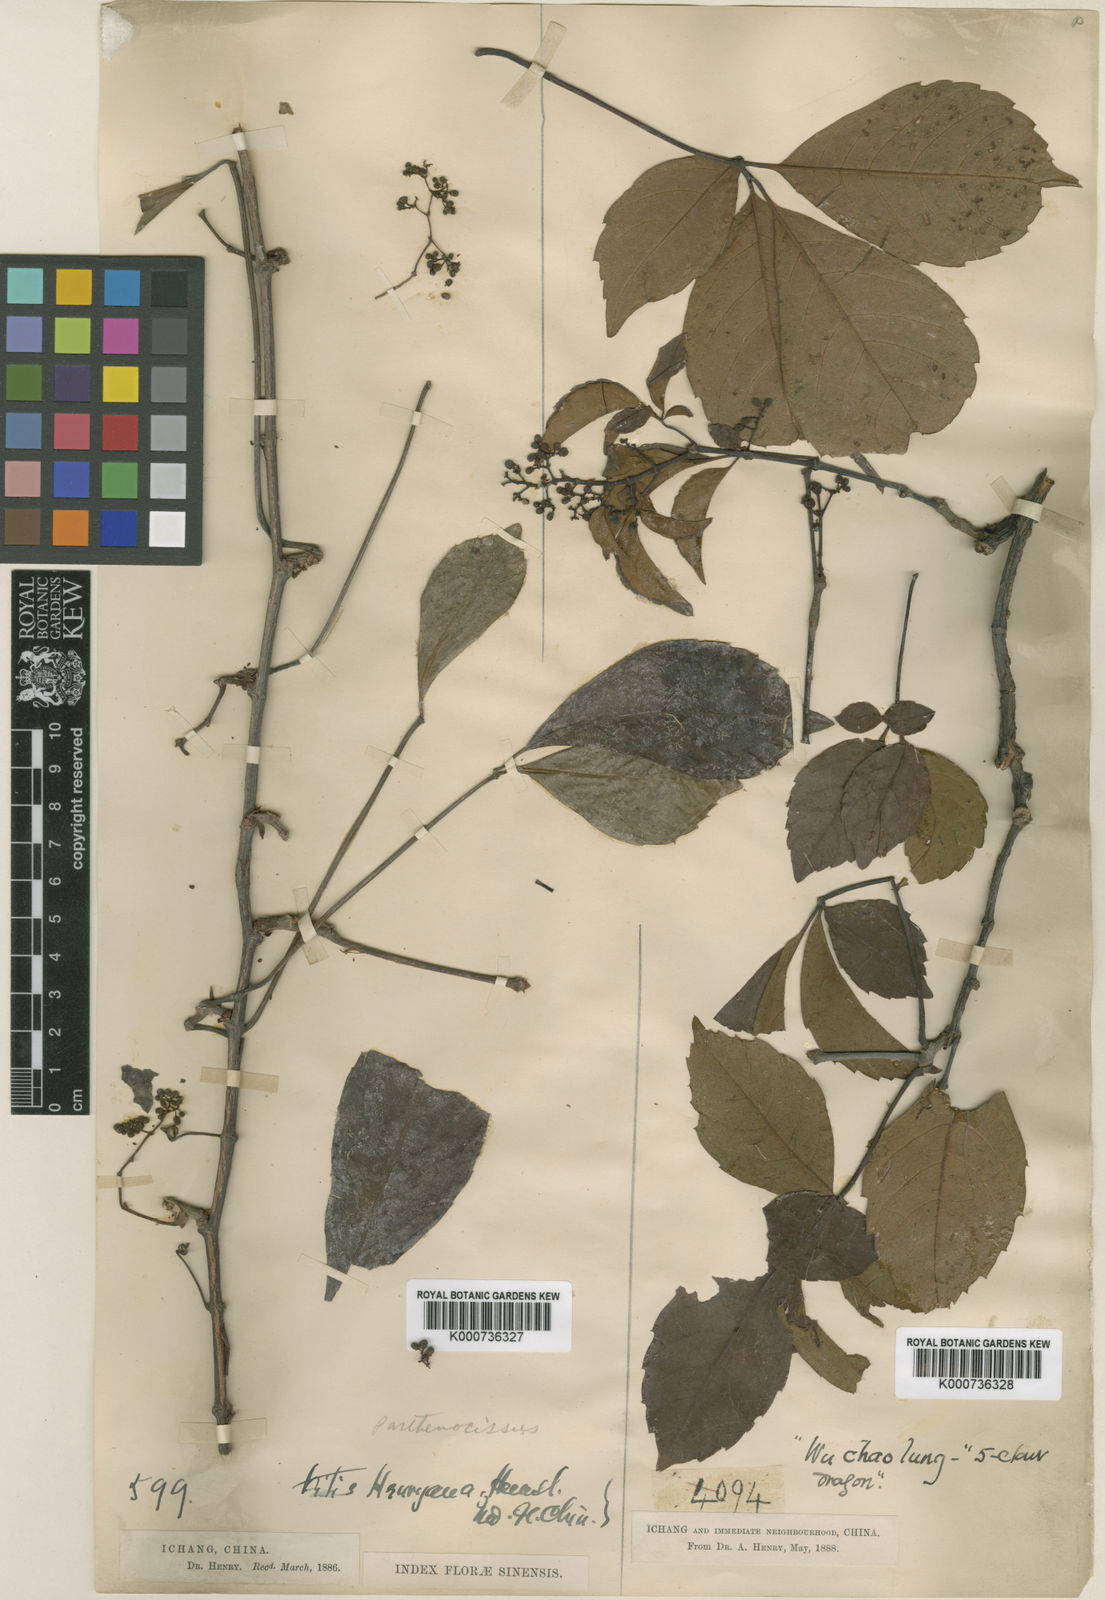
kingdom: Plantae
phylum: Tracheophyta
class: Magnoliopsida
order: Vitales
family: Vitaceae
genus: Parthenocissus
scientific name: Parthenocissus henryana
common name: Chinese virginia-creeper
